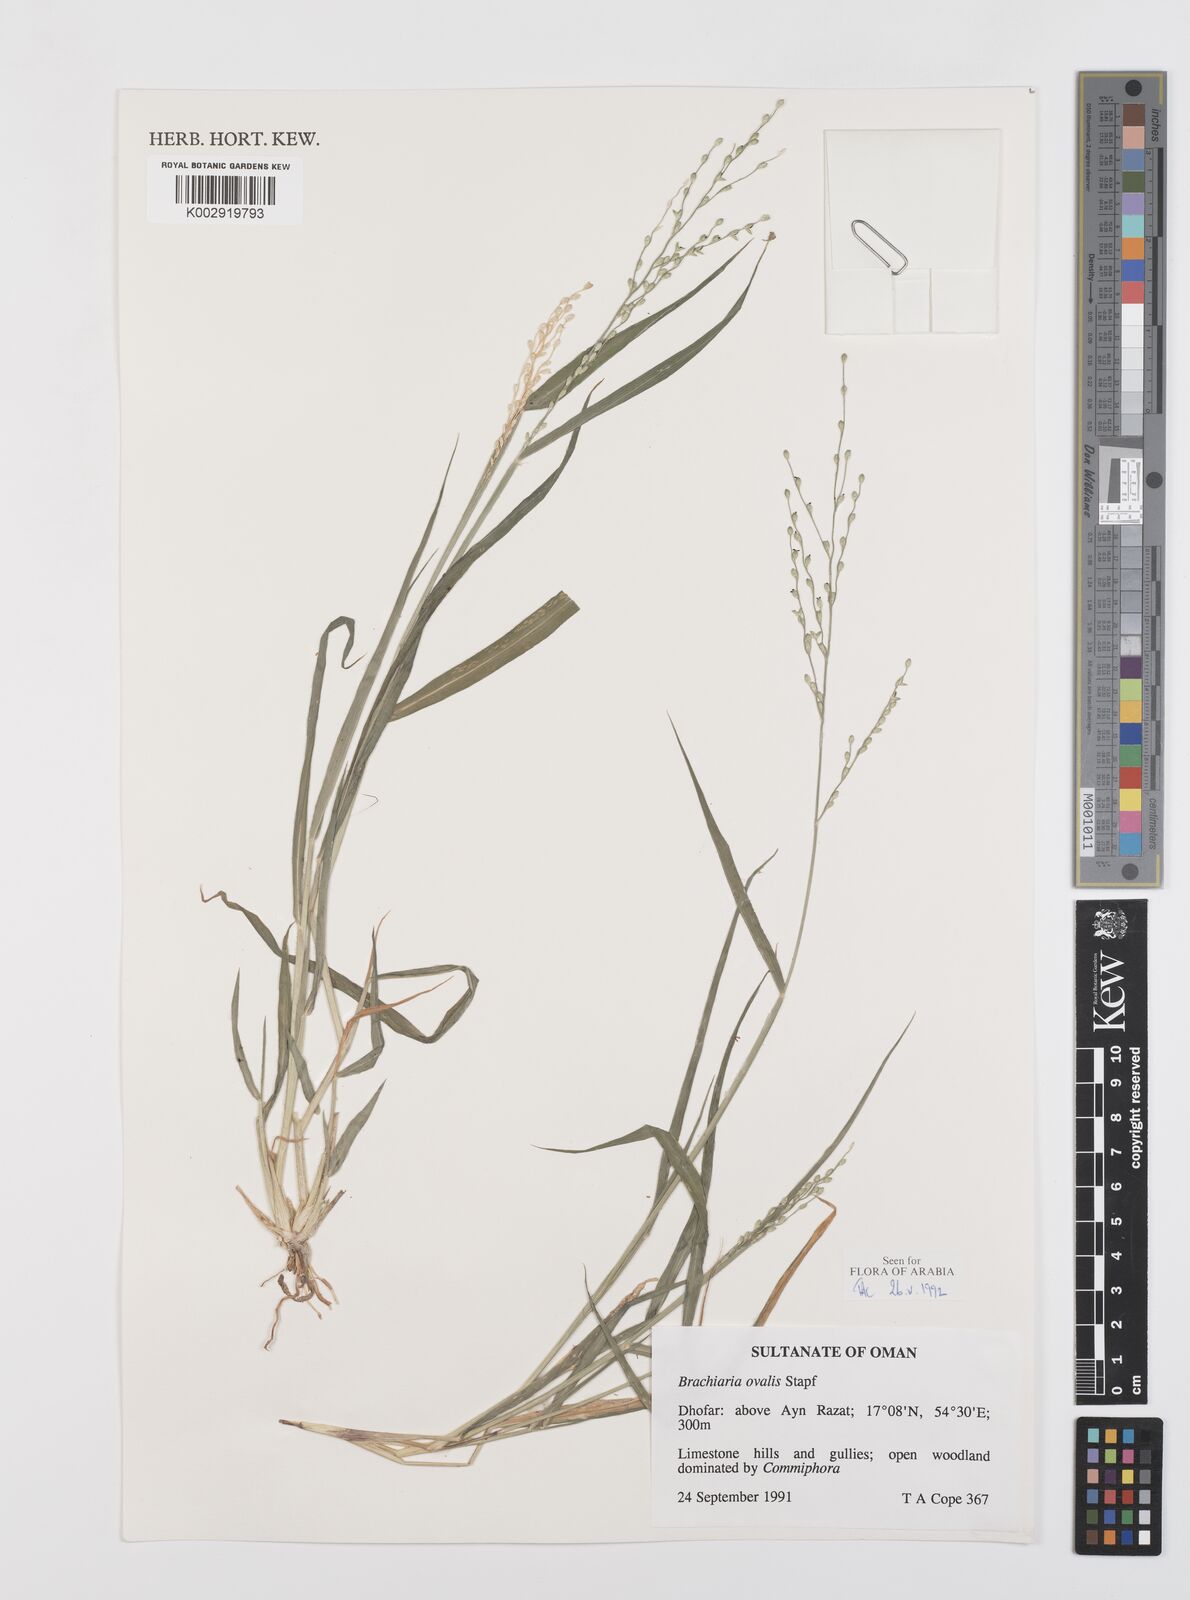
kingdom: Plantae
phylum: Tracheophyta
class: Liliopsida
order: Poales
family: Poaceae
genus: Urochloa
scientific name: Urochloa ovalis
